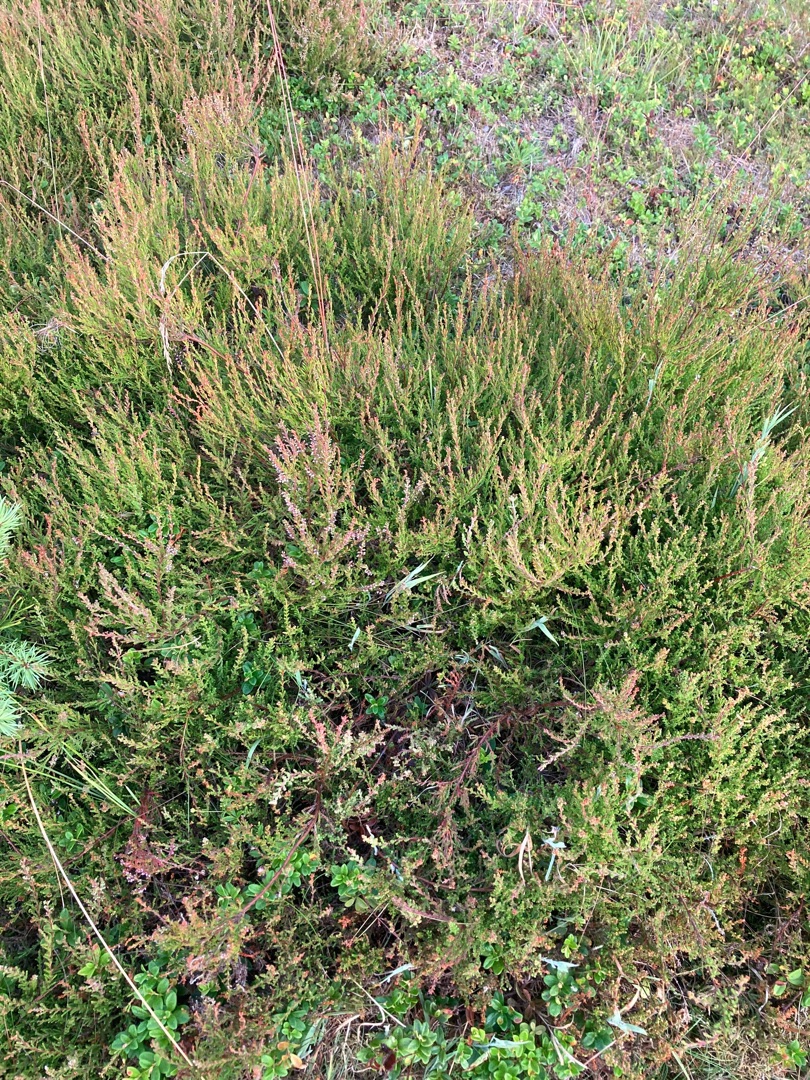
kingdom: Plantae
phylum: Tracheophyta
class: Magnoliopsida
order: Ericales
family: Ericaceae
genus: Calluna
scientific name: Calluna vulgaris
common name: Hedelyng
